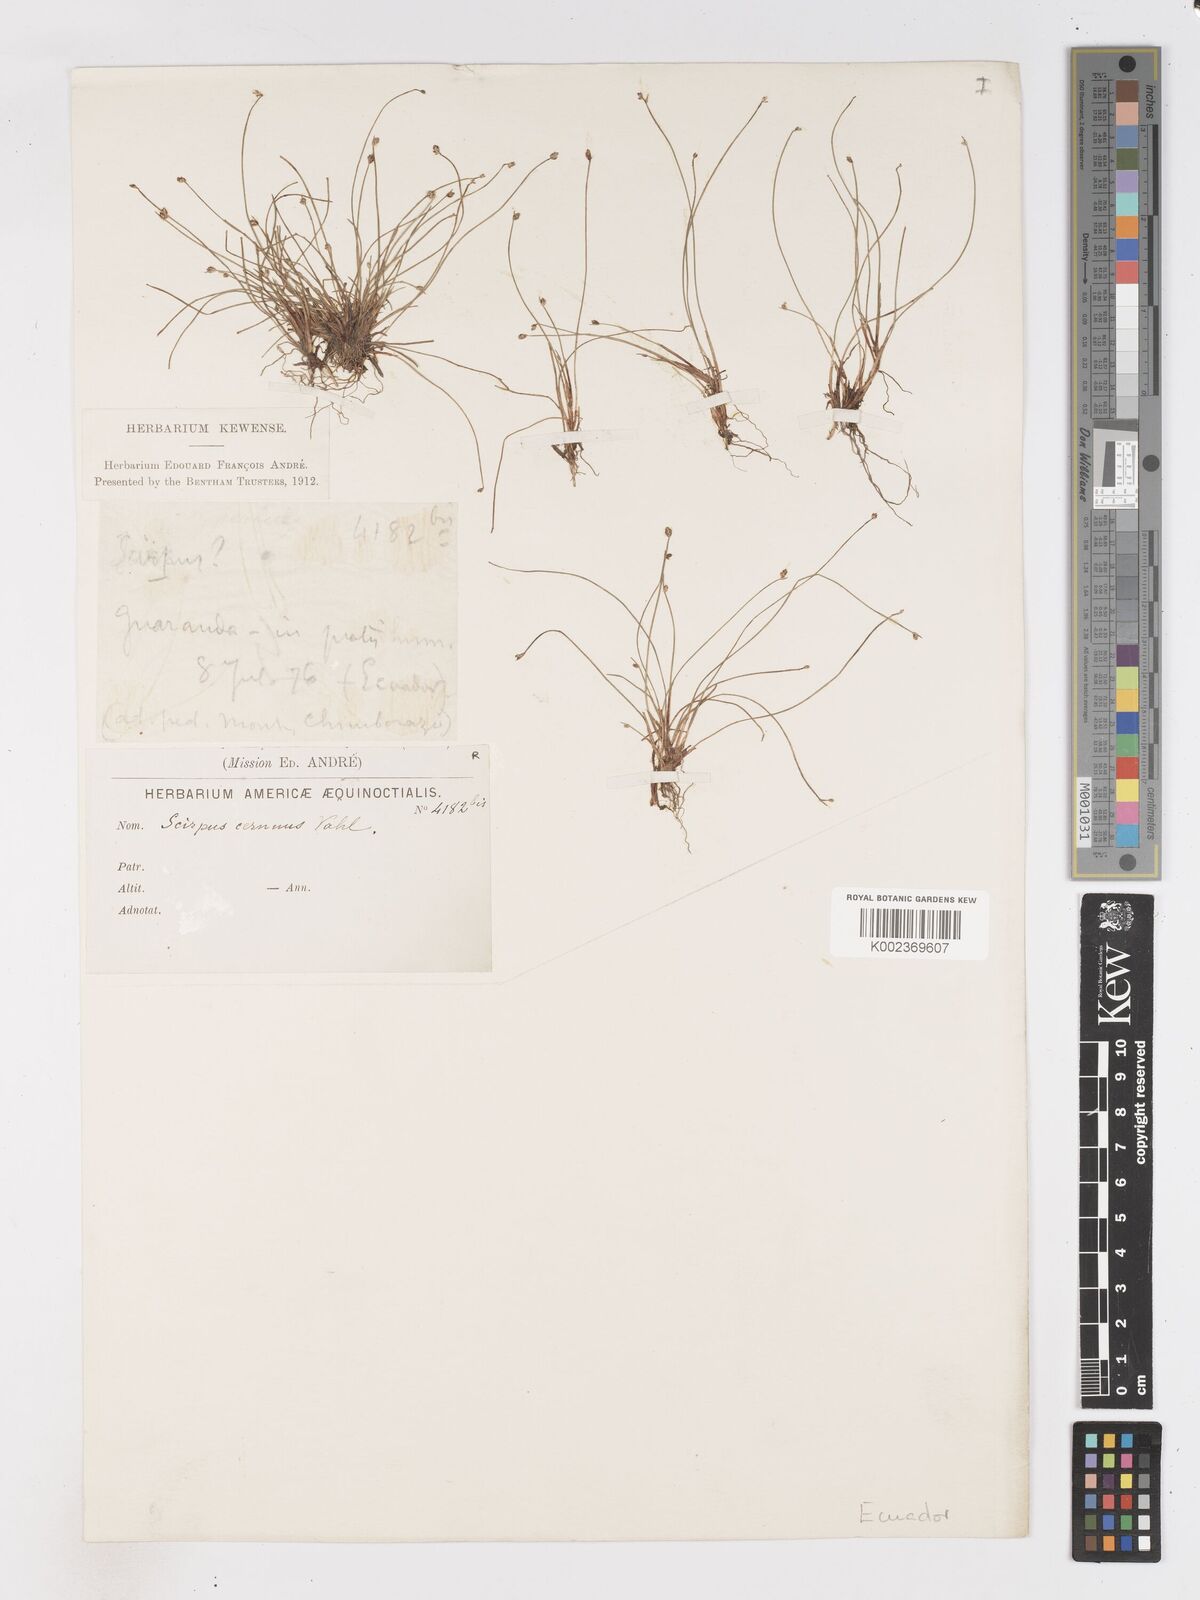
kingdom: Plantae
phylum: Tracheophyta
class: Liliopsida
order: Poales
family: Cyperaceae
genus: Isolepis
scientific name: Isolepis cernua
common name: Slender club-rush
